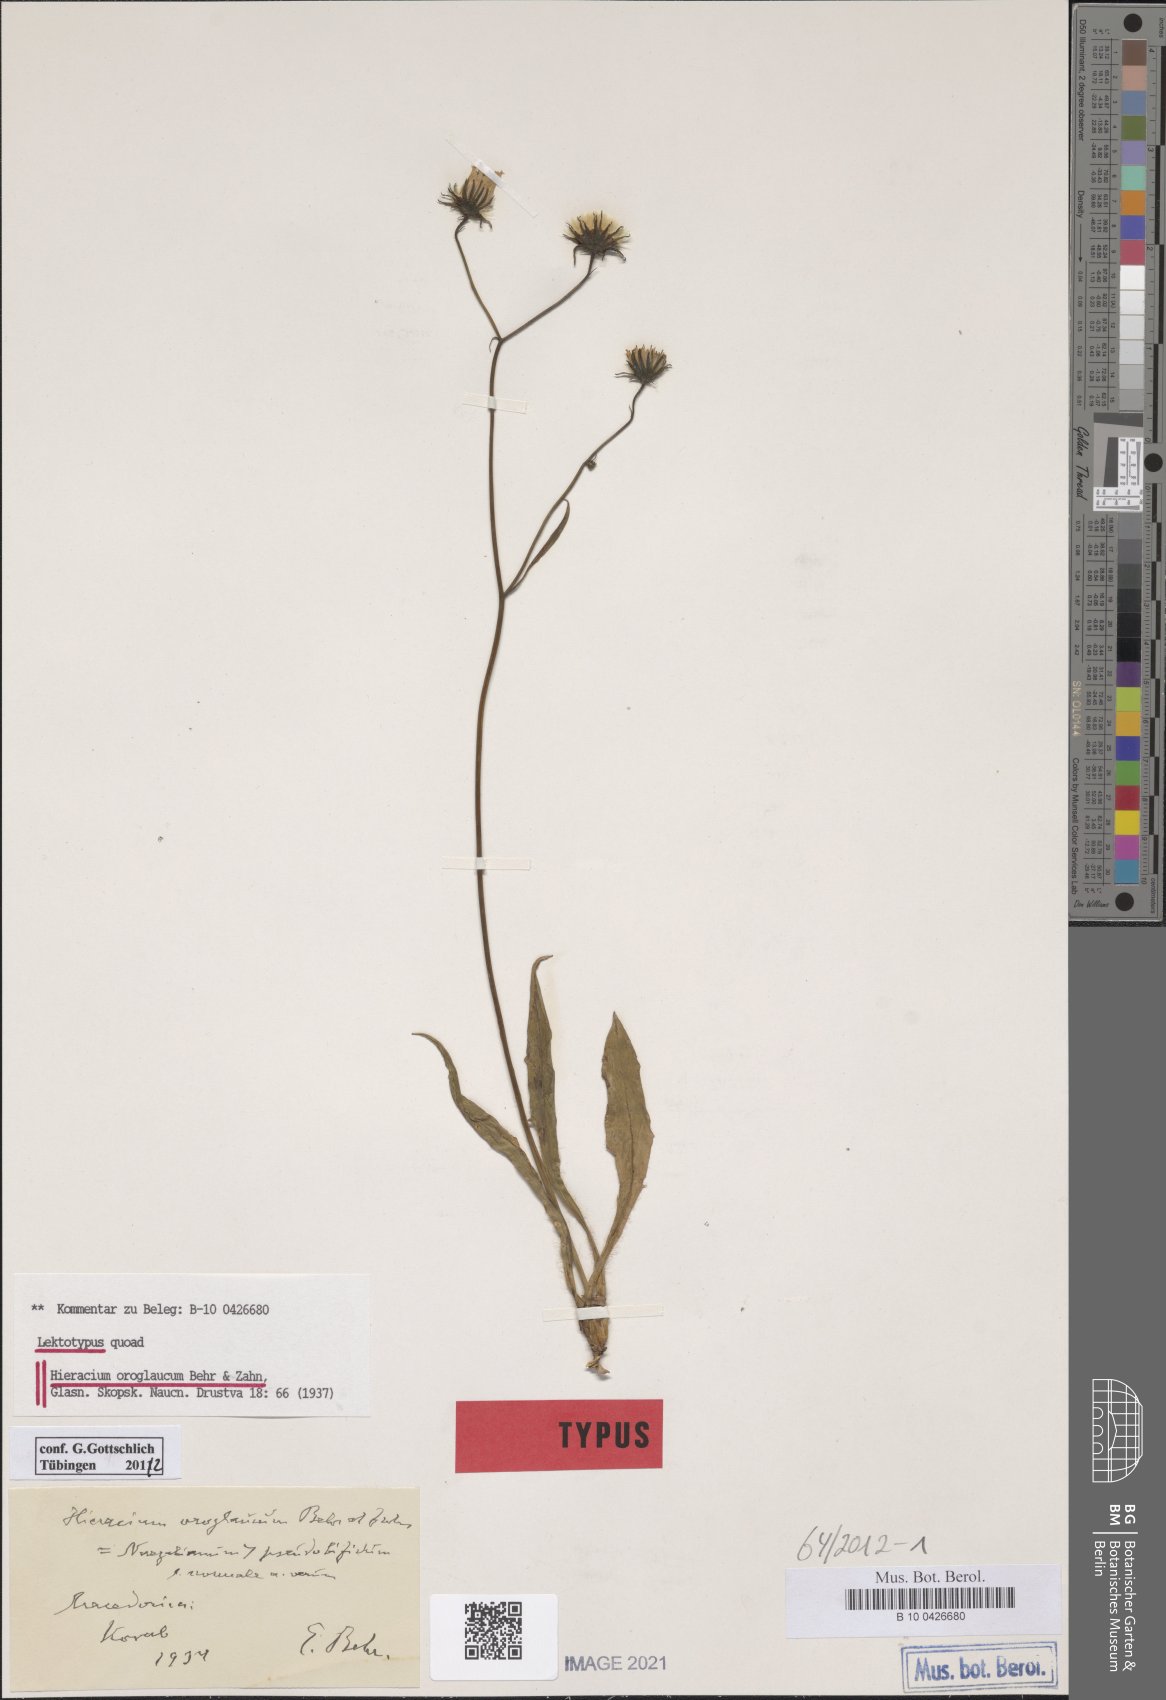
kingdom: Plantae
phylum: Tracheophyta
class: Magnoliopsida
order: Asterales
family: Asteraceae
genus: Hieracium
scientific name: Hieracium oroglaucum
